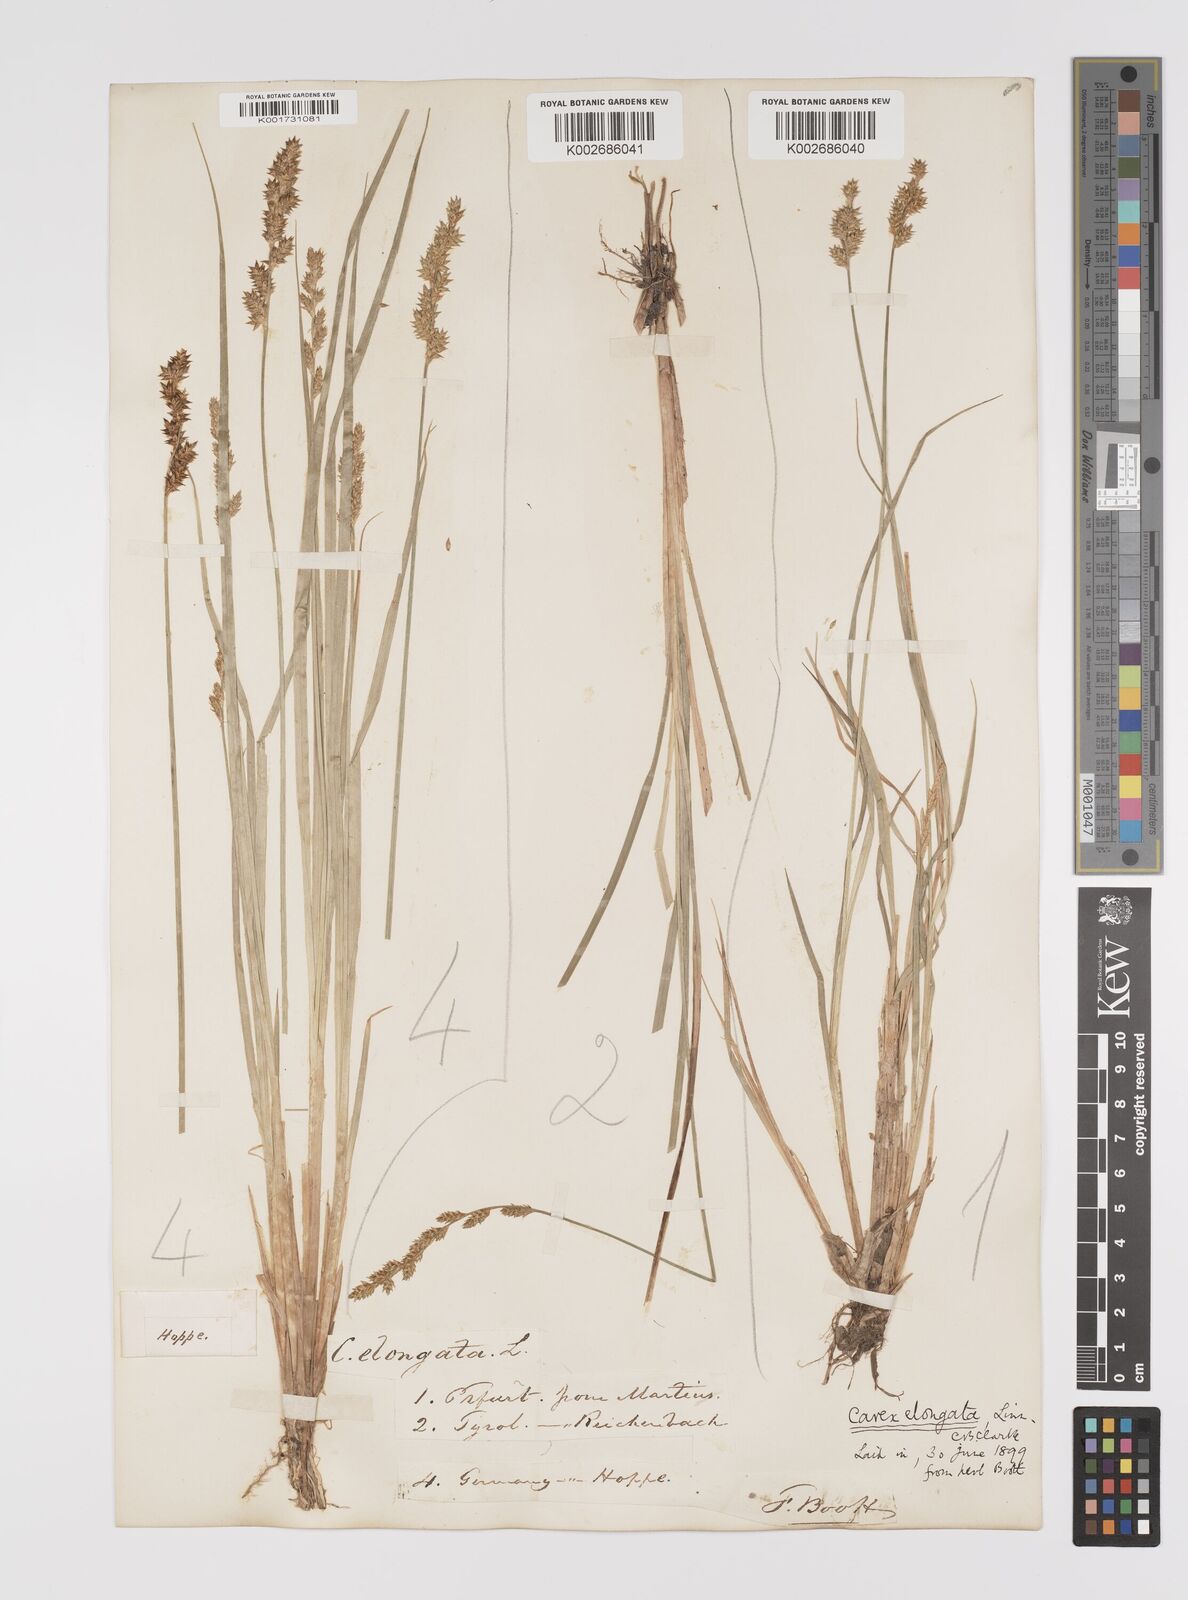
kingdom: Plantae
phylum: Tracheophyta
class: Liliopsida
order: Poales
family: Cyperaceae
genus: Carex
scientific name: Carex elongata
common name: Elongated sedge
